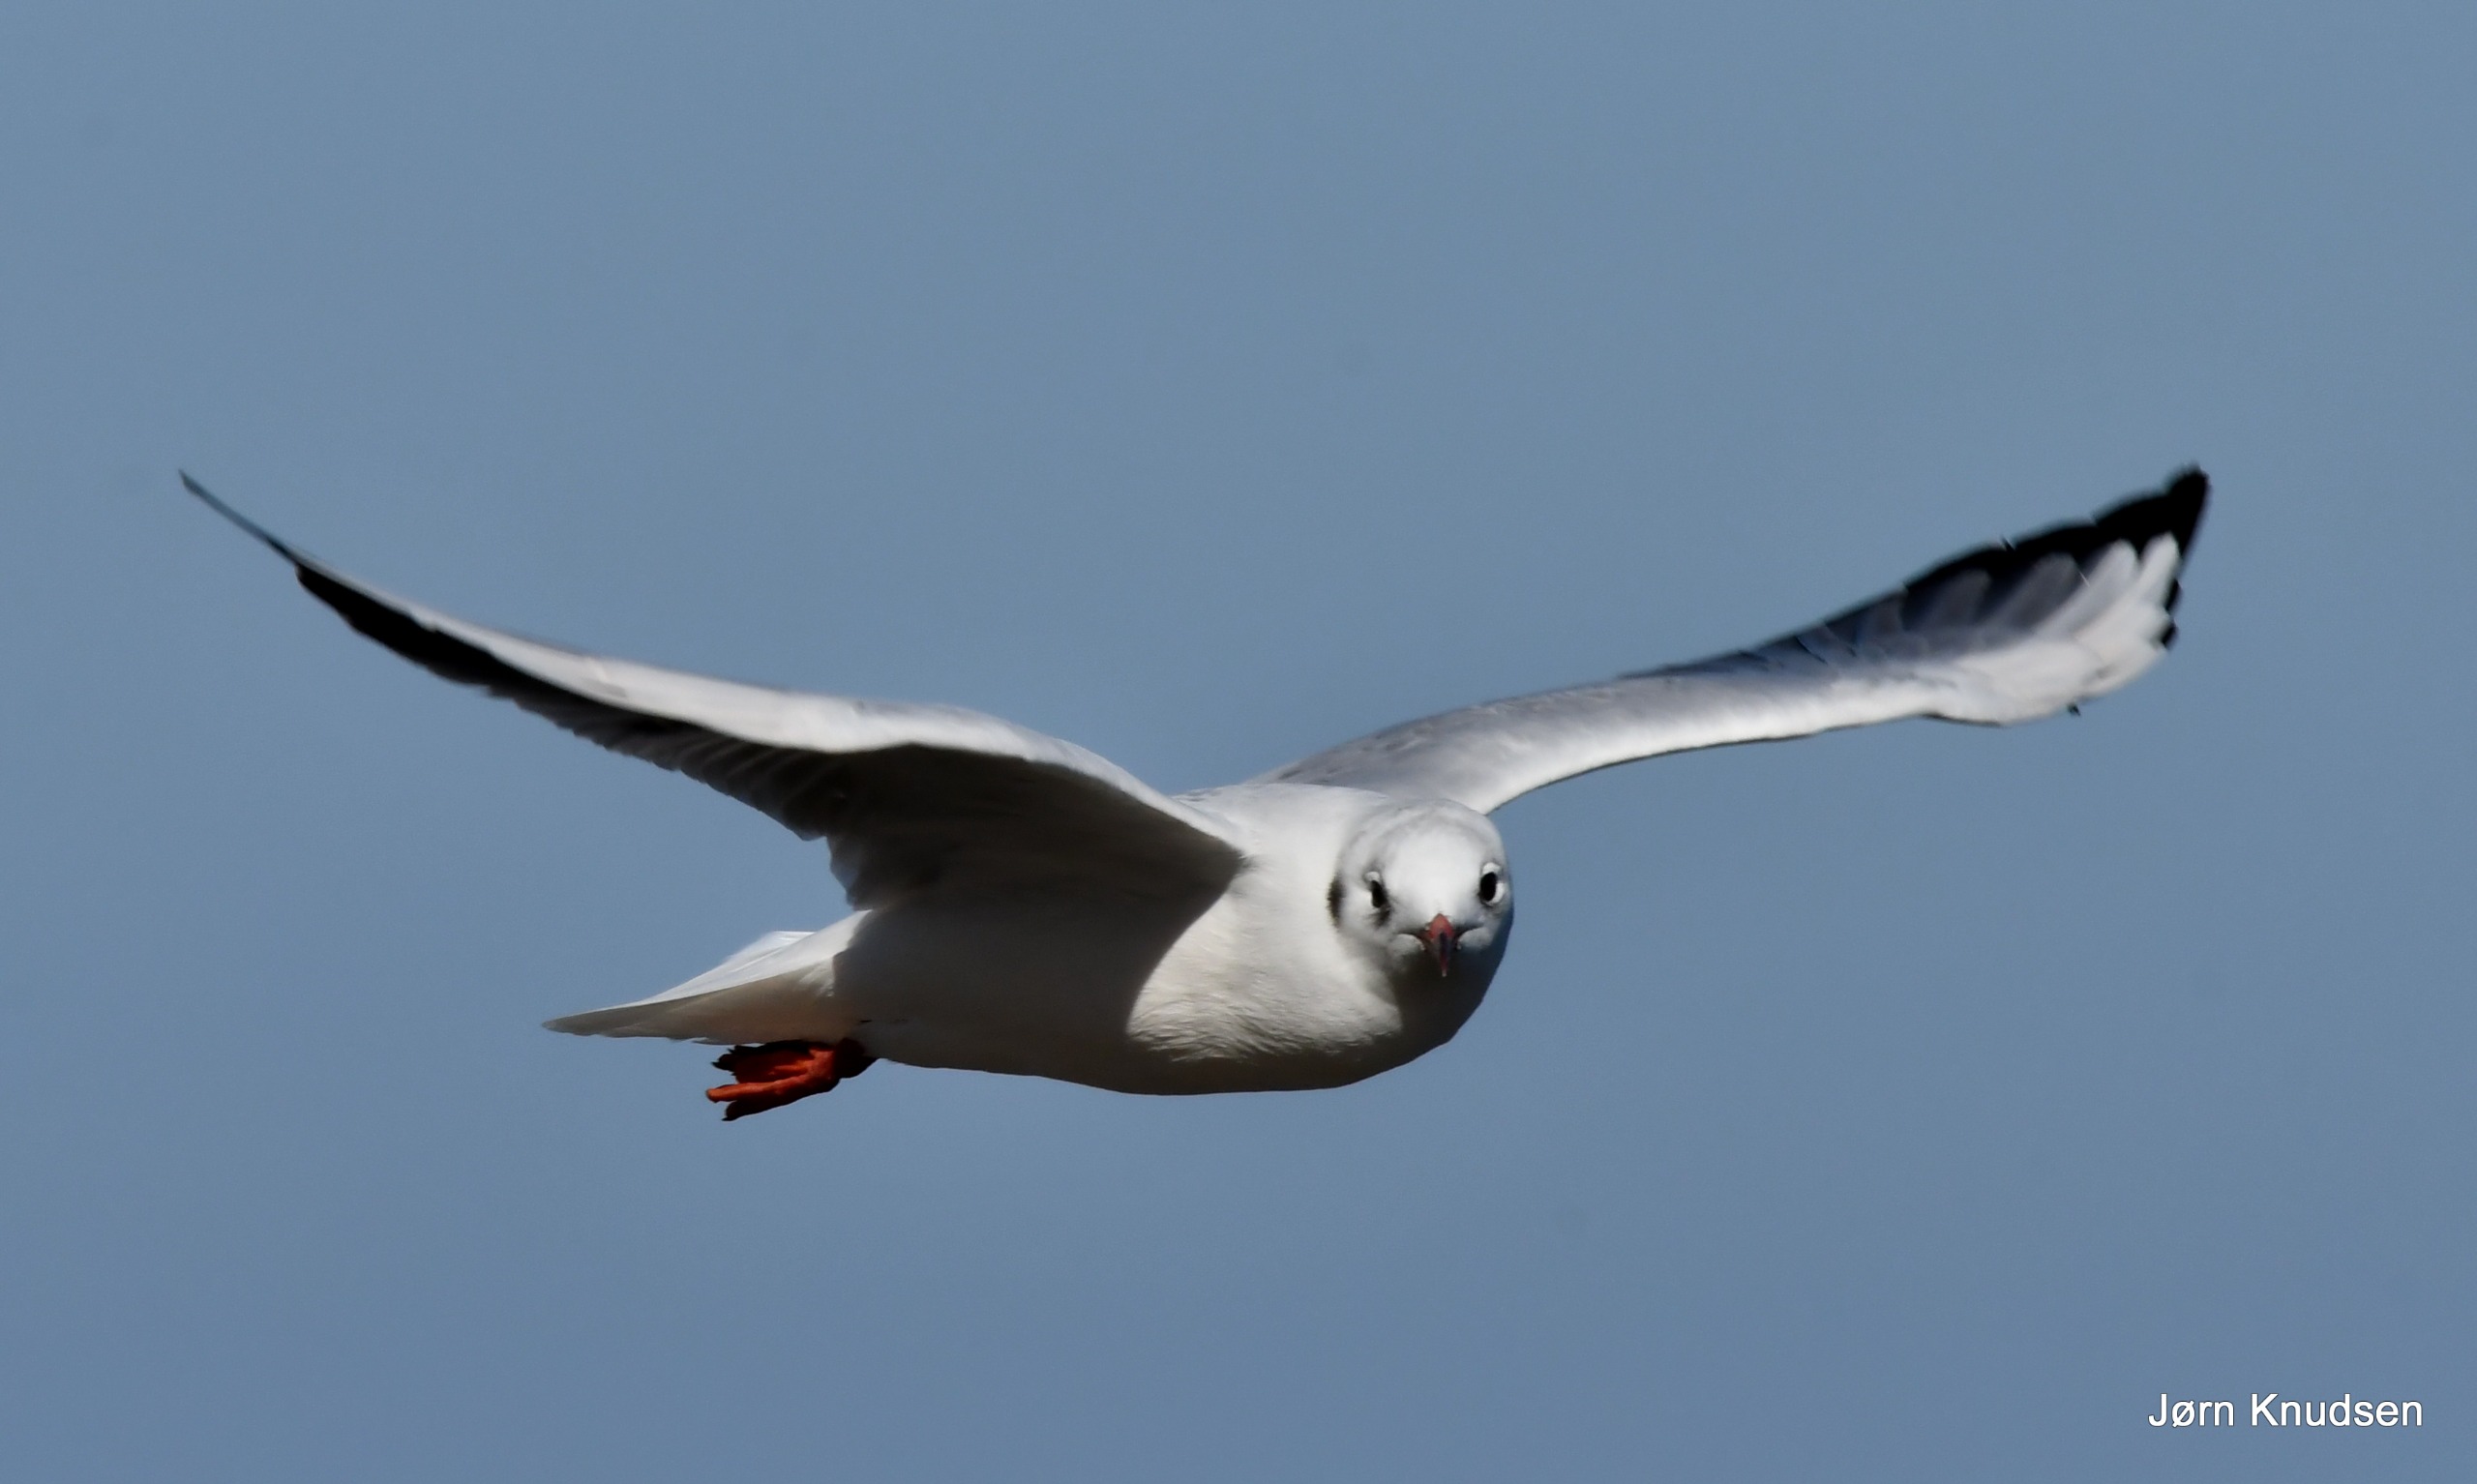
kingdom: Animalia
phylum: Chordata
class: Aves
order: Charadriiformes
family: Laridae
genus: Chroicocephalus
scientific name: Chroicocephalus ridibundus
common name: Hættemåge
